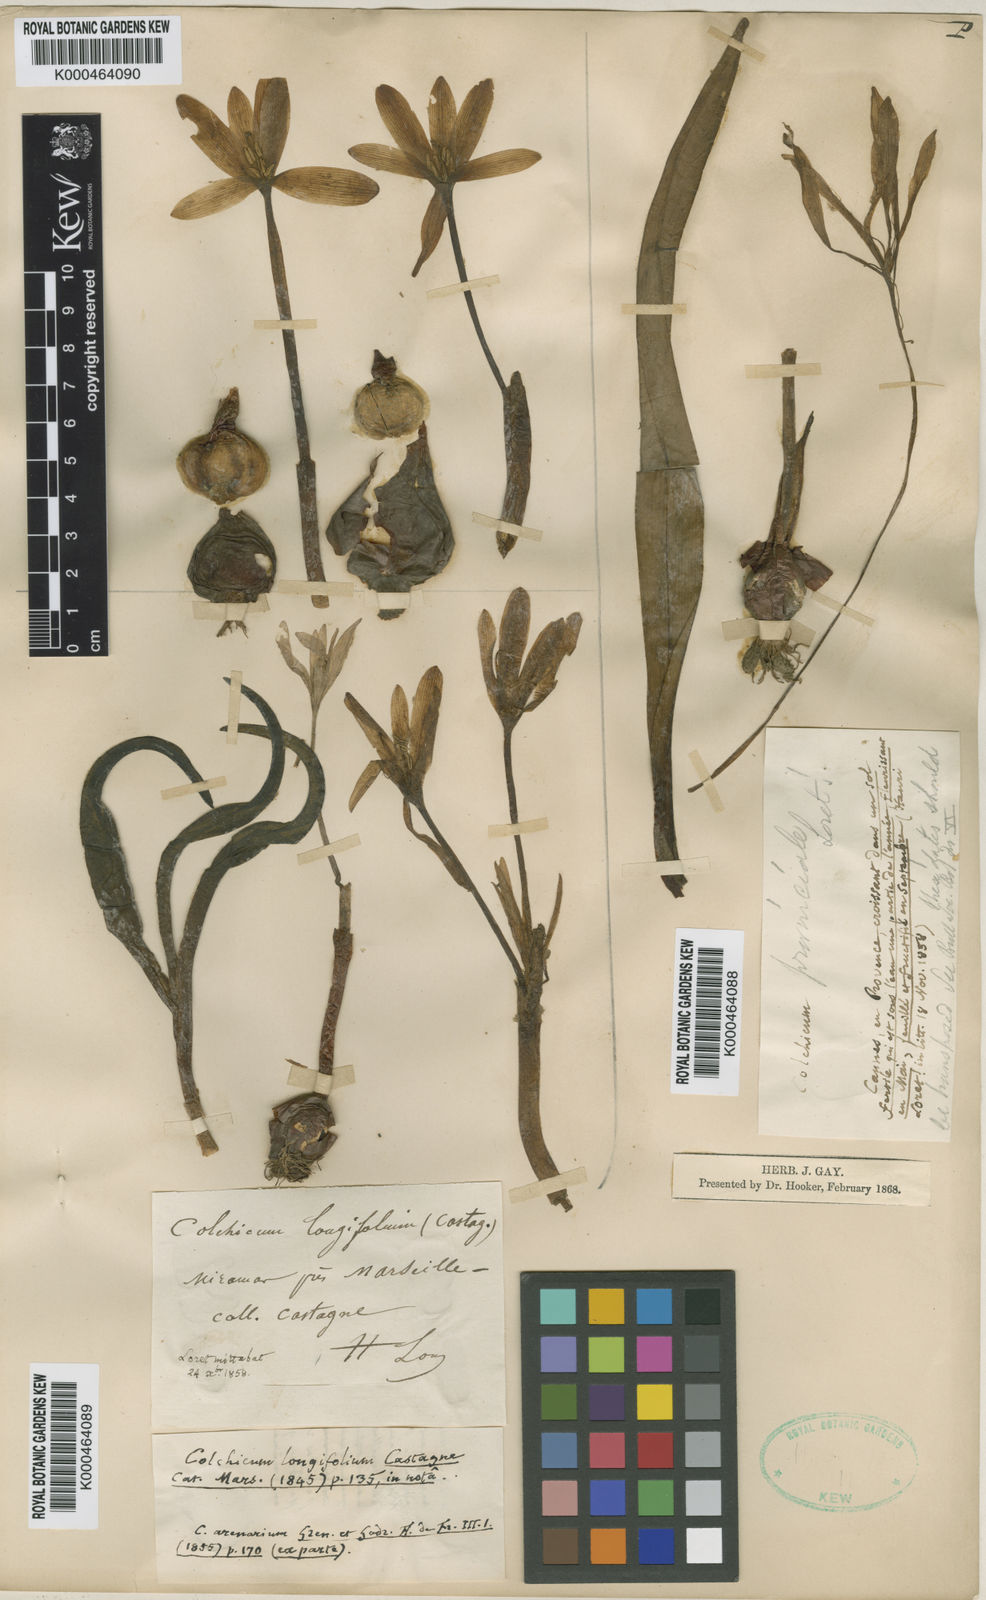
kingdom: Plantae
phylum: Tracheophyta
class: Liliopsida
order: Liliales
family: Colchicaceae
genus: Colchicum
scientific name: Colchicum longifolium
